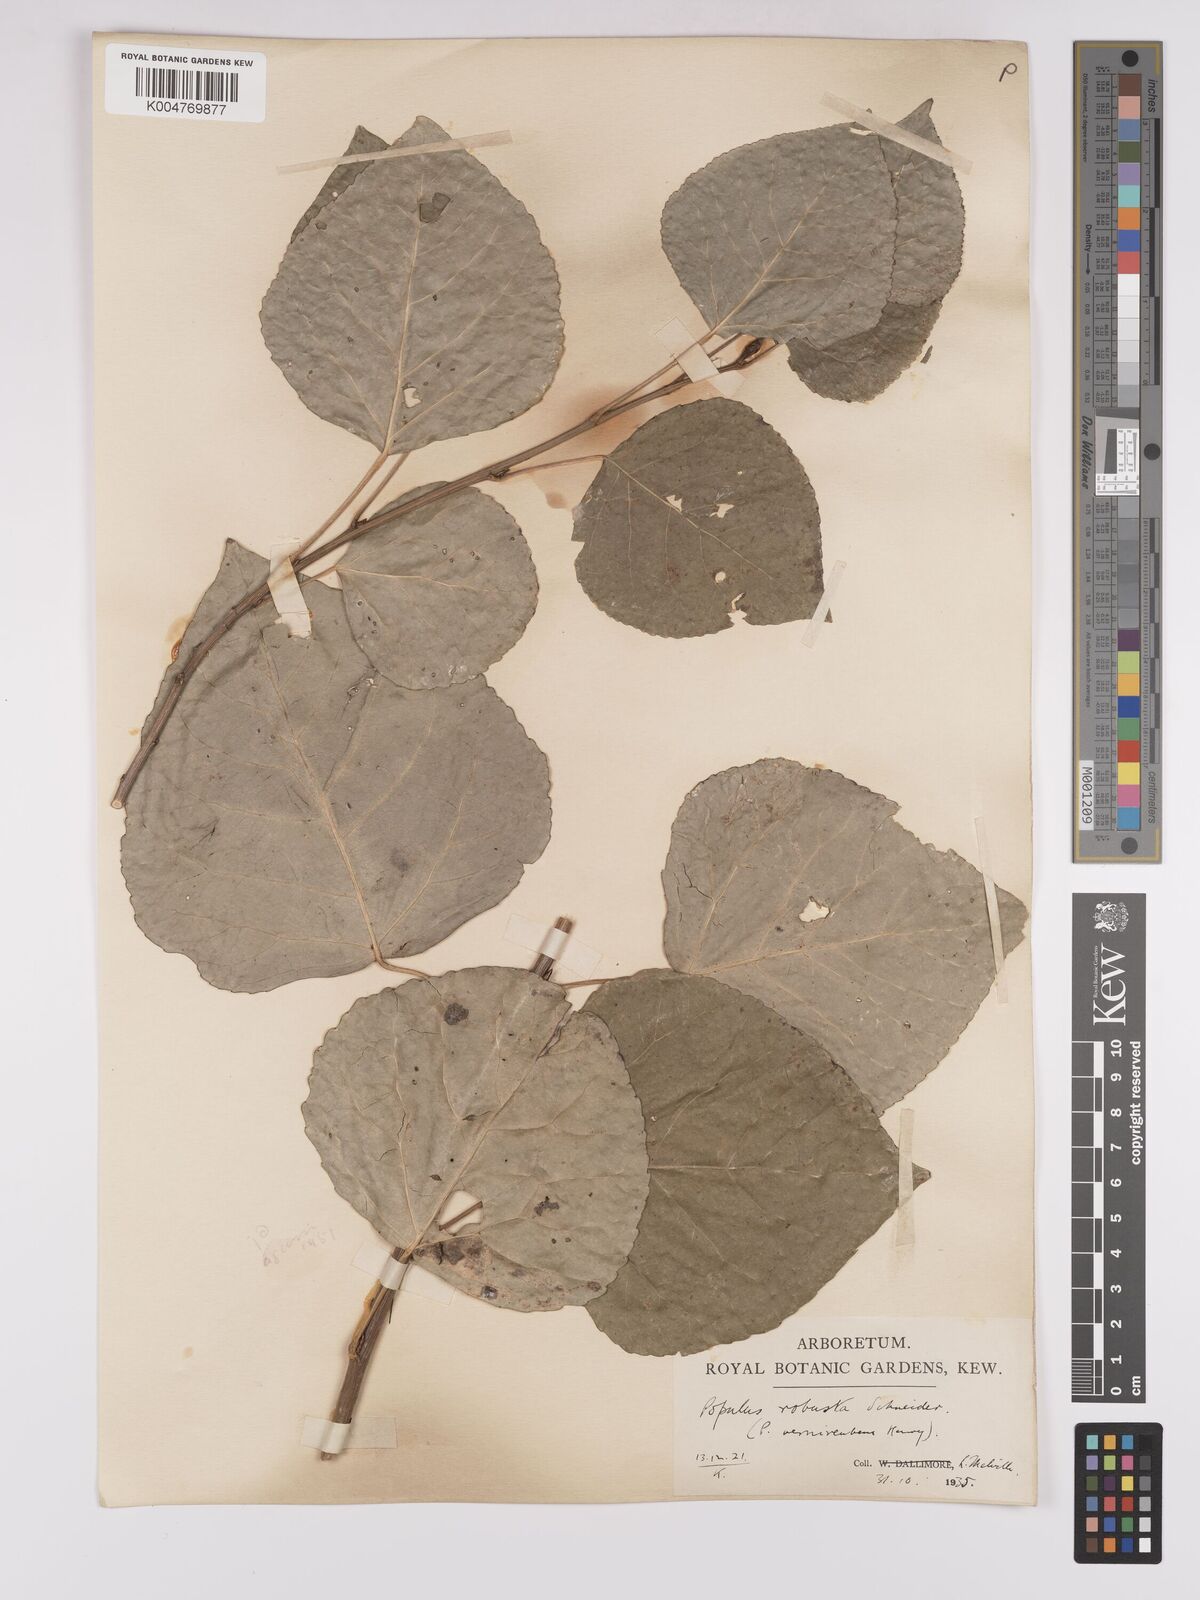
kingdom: Plantae
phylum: Tracheophyta
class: Magnoliopsida
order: Malpighiales
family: Salicaceae
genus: Populus
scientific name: Populus canadensis
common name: Carolina poplar
